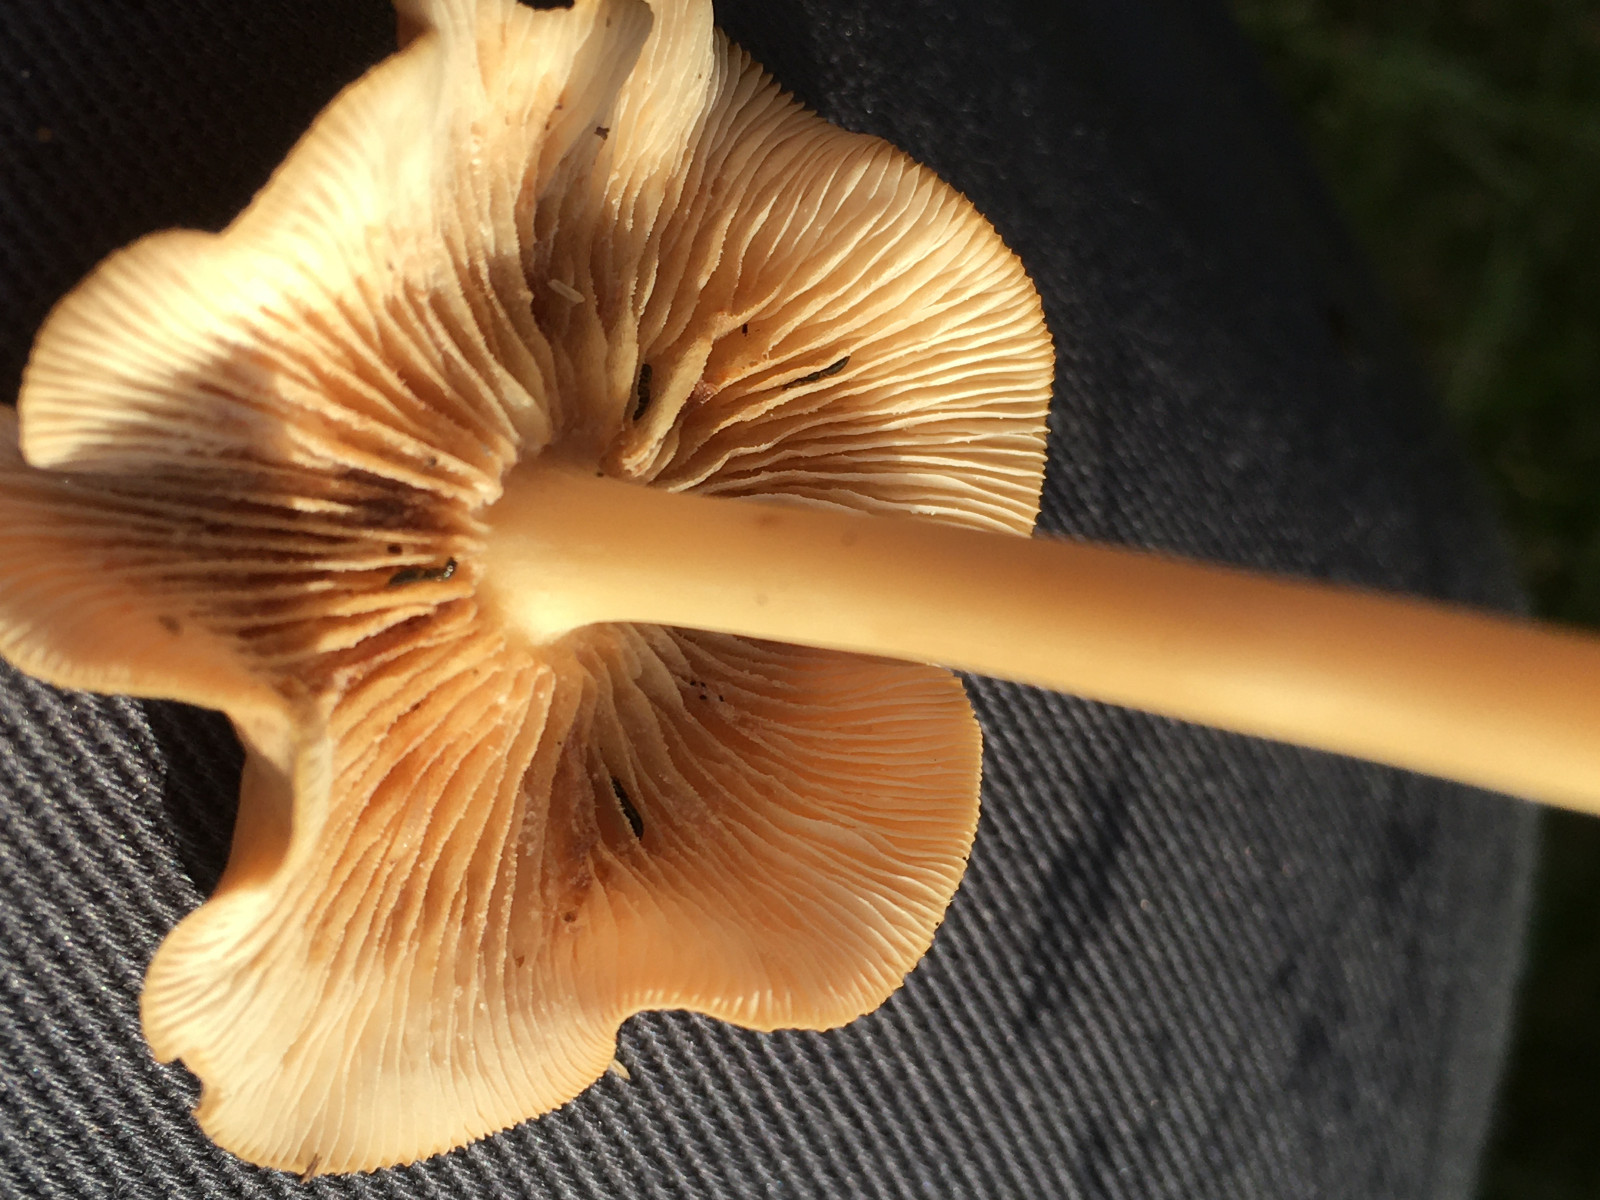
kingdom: Fungi
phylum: Basidiomycota
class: Agaricomycetes
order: Agaricales
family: Omphalotaceae
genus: Gymnopus
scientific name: Gymnopus
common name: fladhat
